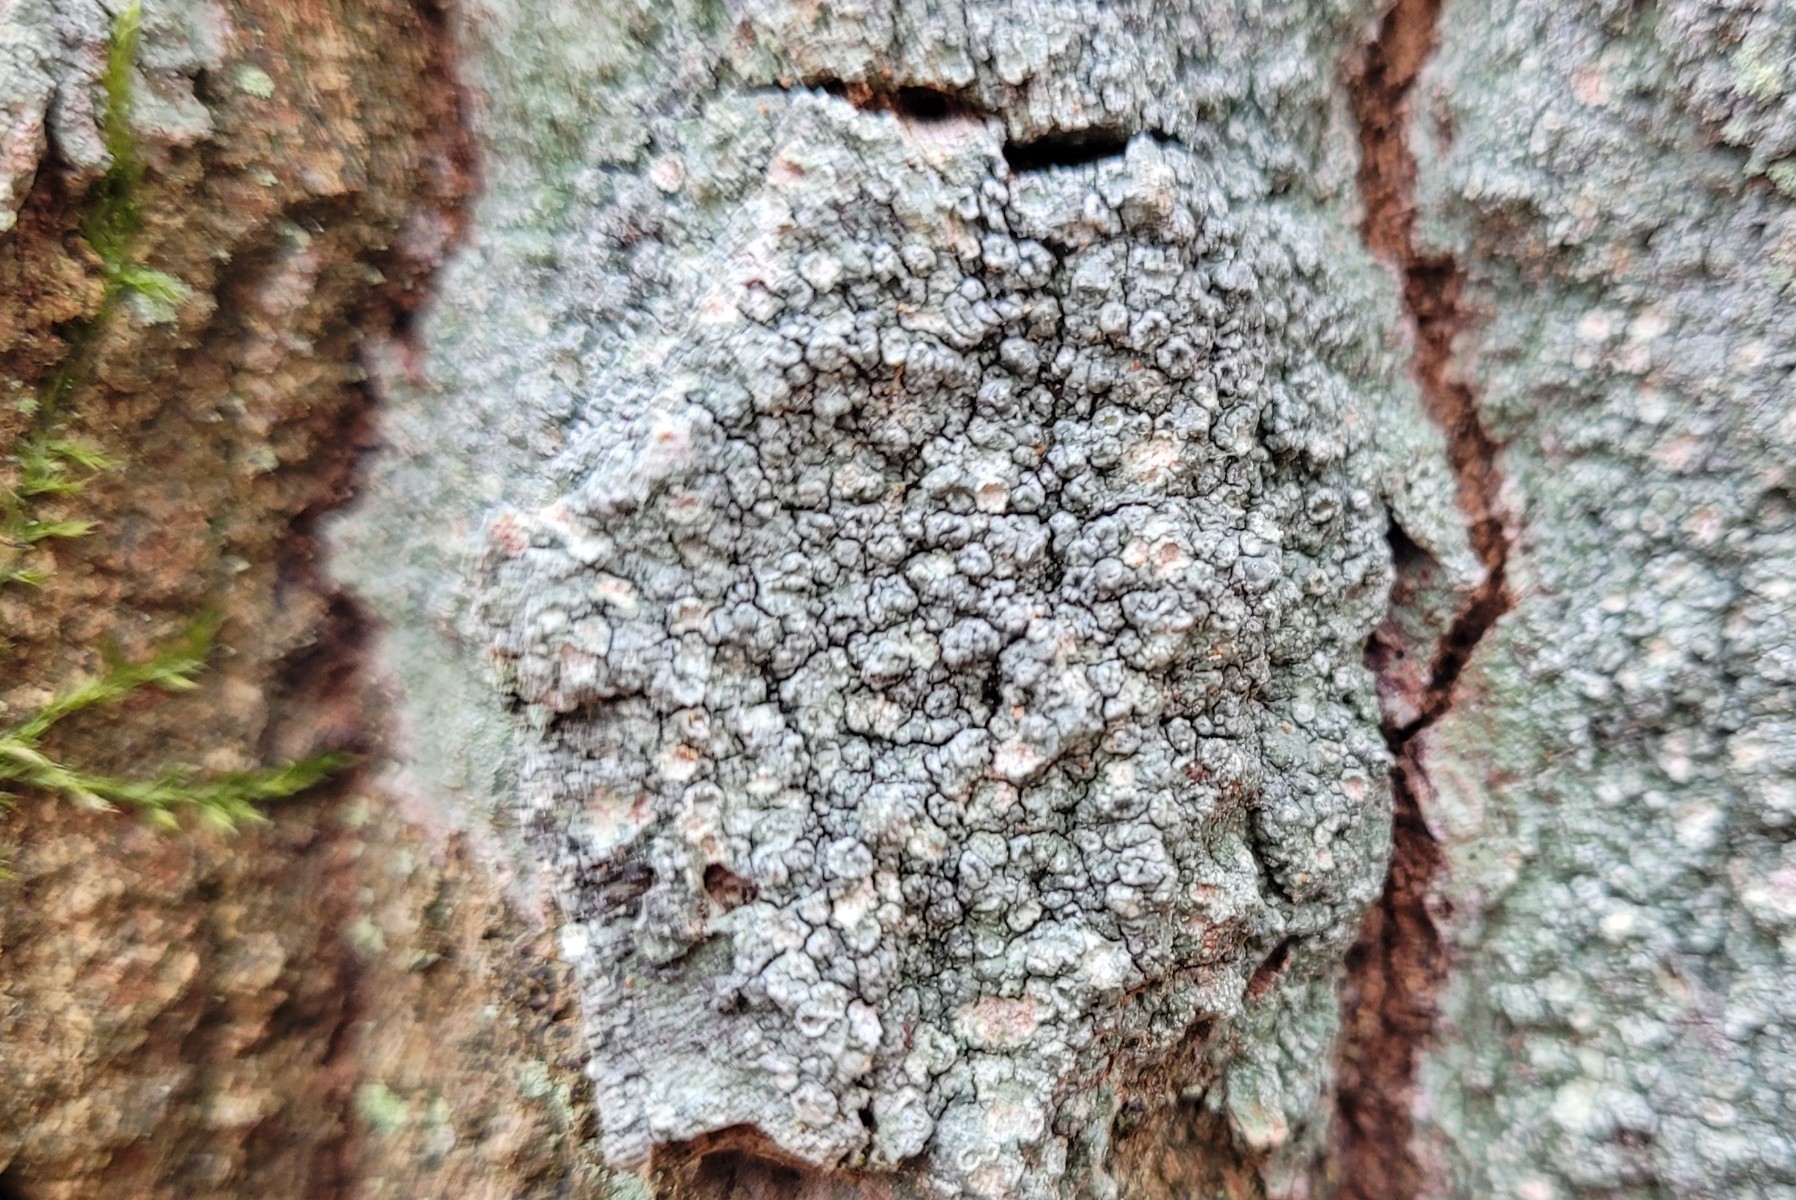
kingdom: Fungi
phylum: Ascomycota
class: Lecanoromycetes
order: Pertusariales
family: Pertusariaceae
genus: Pertusaria
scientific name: Pertusaria hymenea
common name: åben prikvortelav
